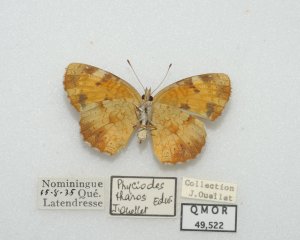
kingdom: Animalia
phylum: Arthropoda
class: Insecta
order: Lepidoptera
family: Nymphalidae
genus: Phyciodes
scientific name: Phyciodes tharos
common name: Northern Crescent
